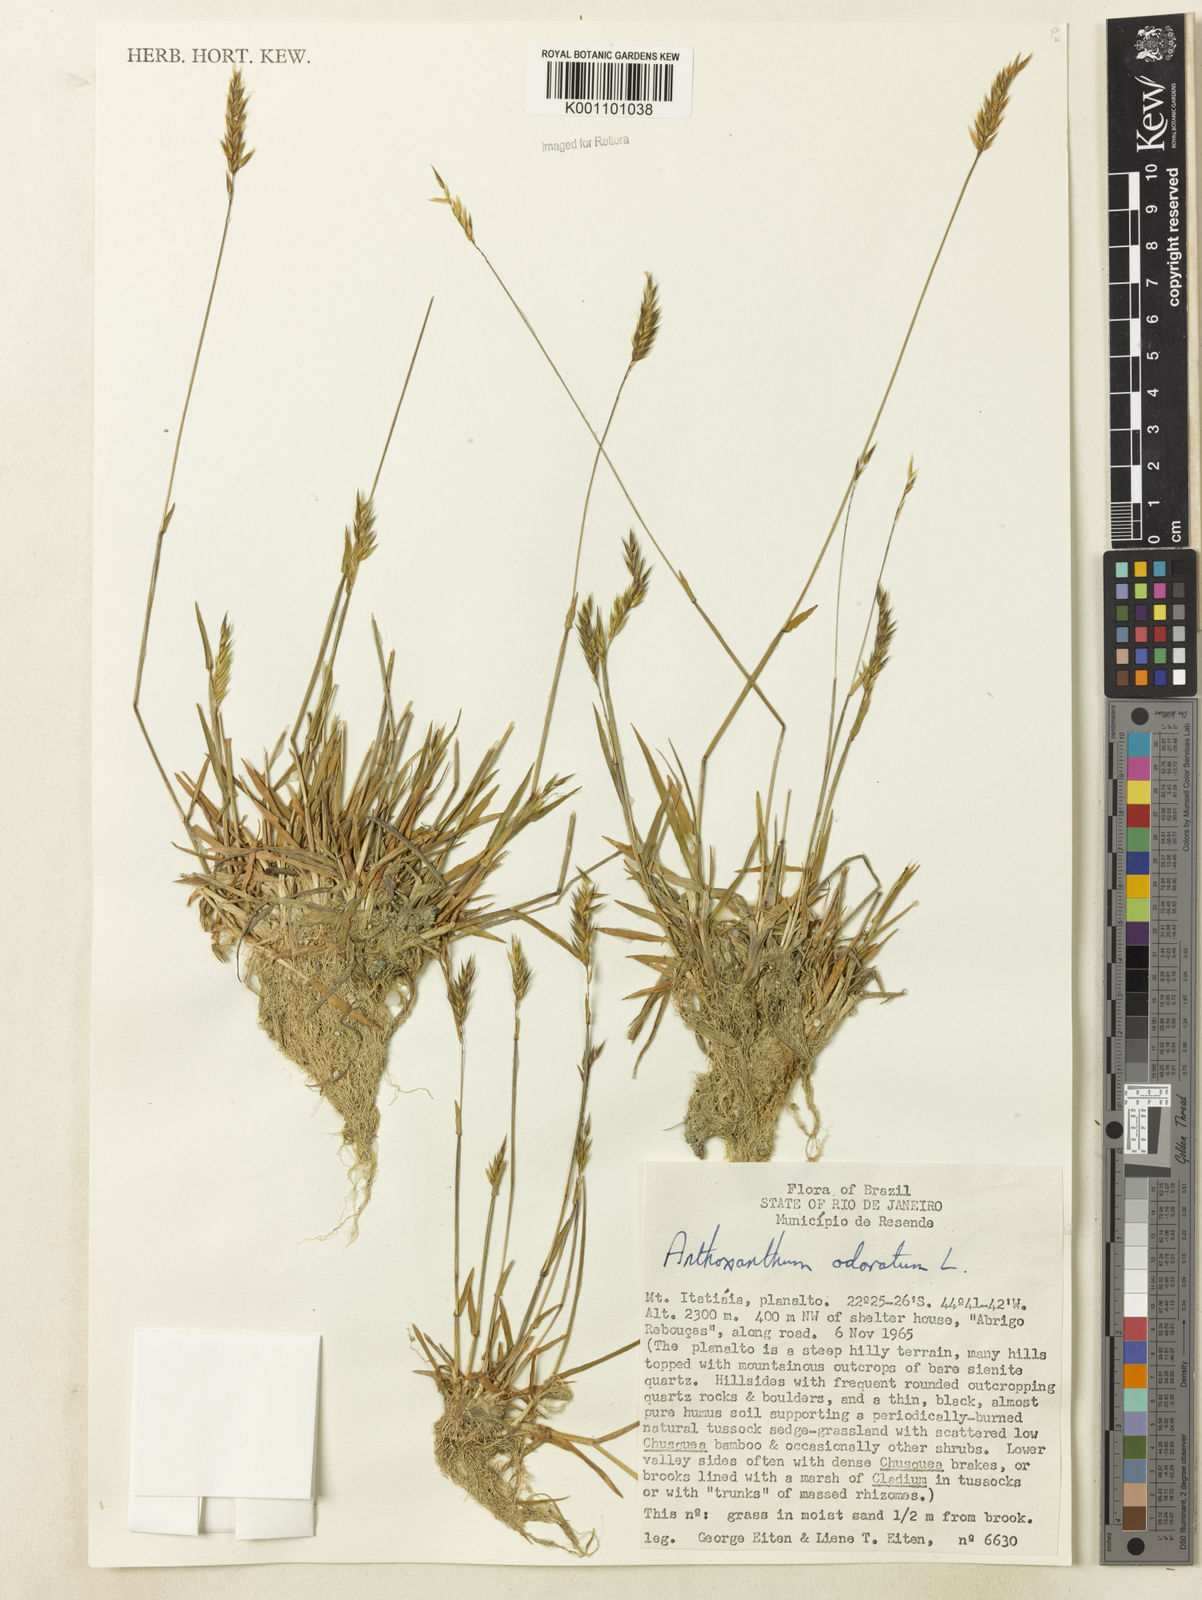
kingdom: Plantae
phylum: Tracheophyta
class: Liliopsida
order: Poales
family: Poaceae
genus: Anthoxanthum
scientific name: Anthoxanthum odoratum
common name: Sweet vernalgrass
